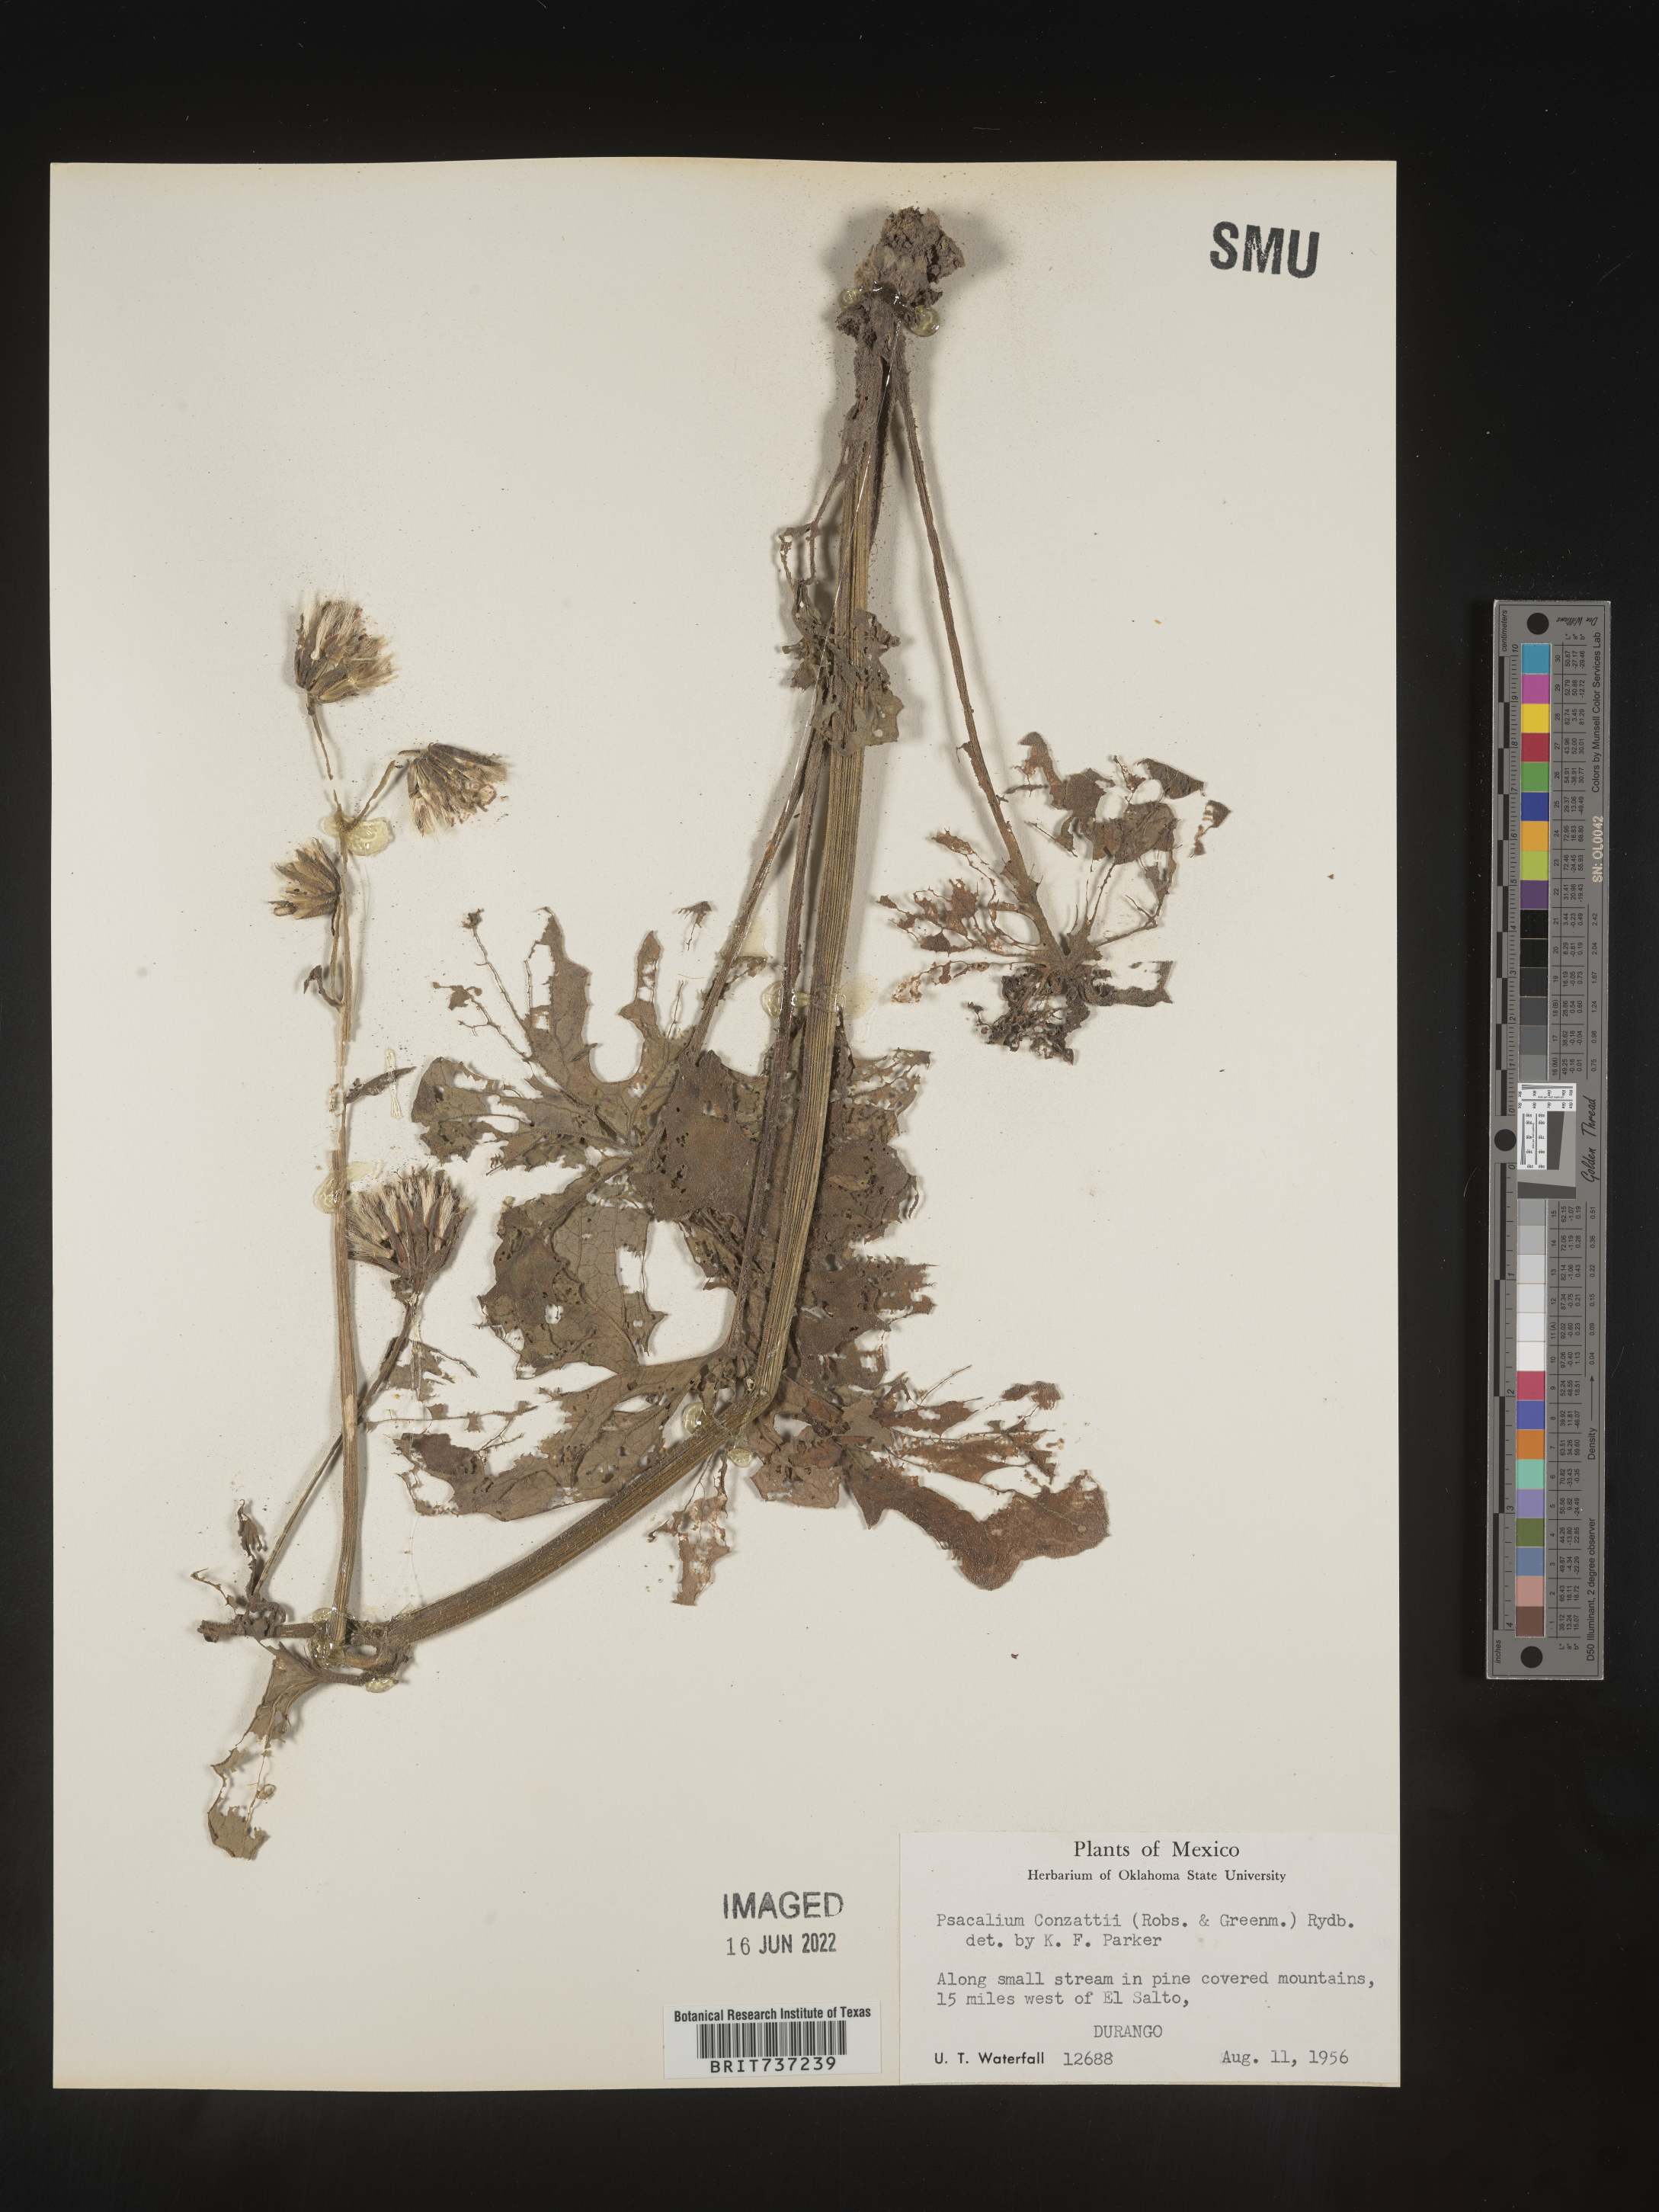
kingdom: Plantae
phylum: Tracheophyta
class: Magnoliopsida
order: Asterales
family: Asteraceae
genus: Psacalium
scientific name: Psacalium
